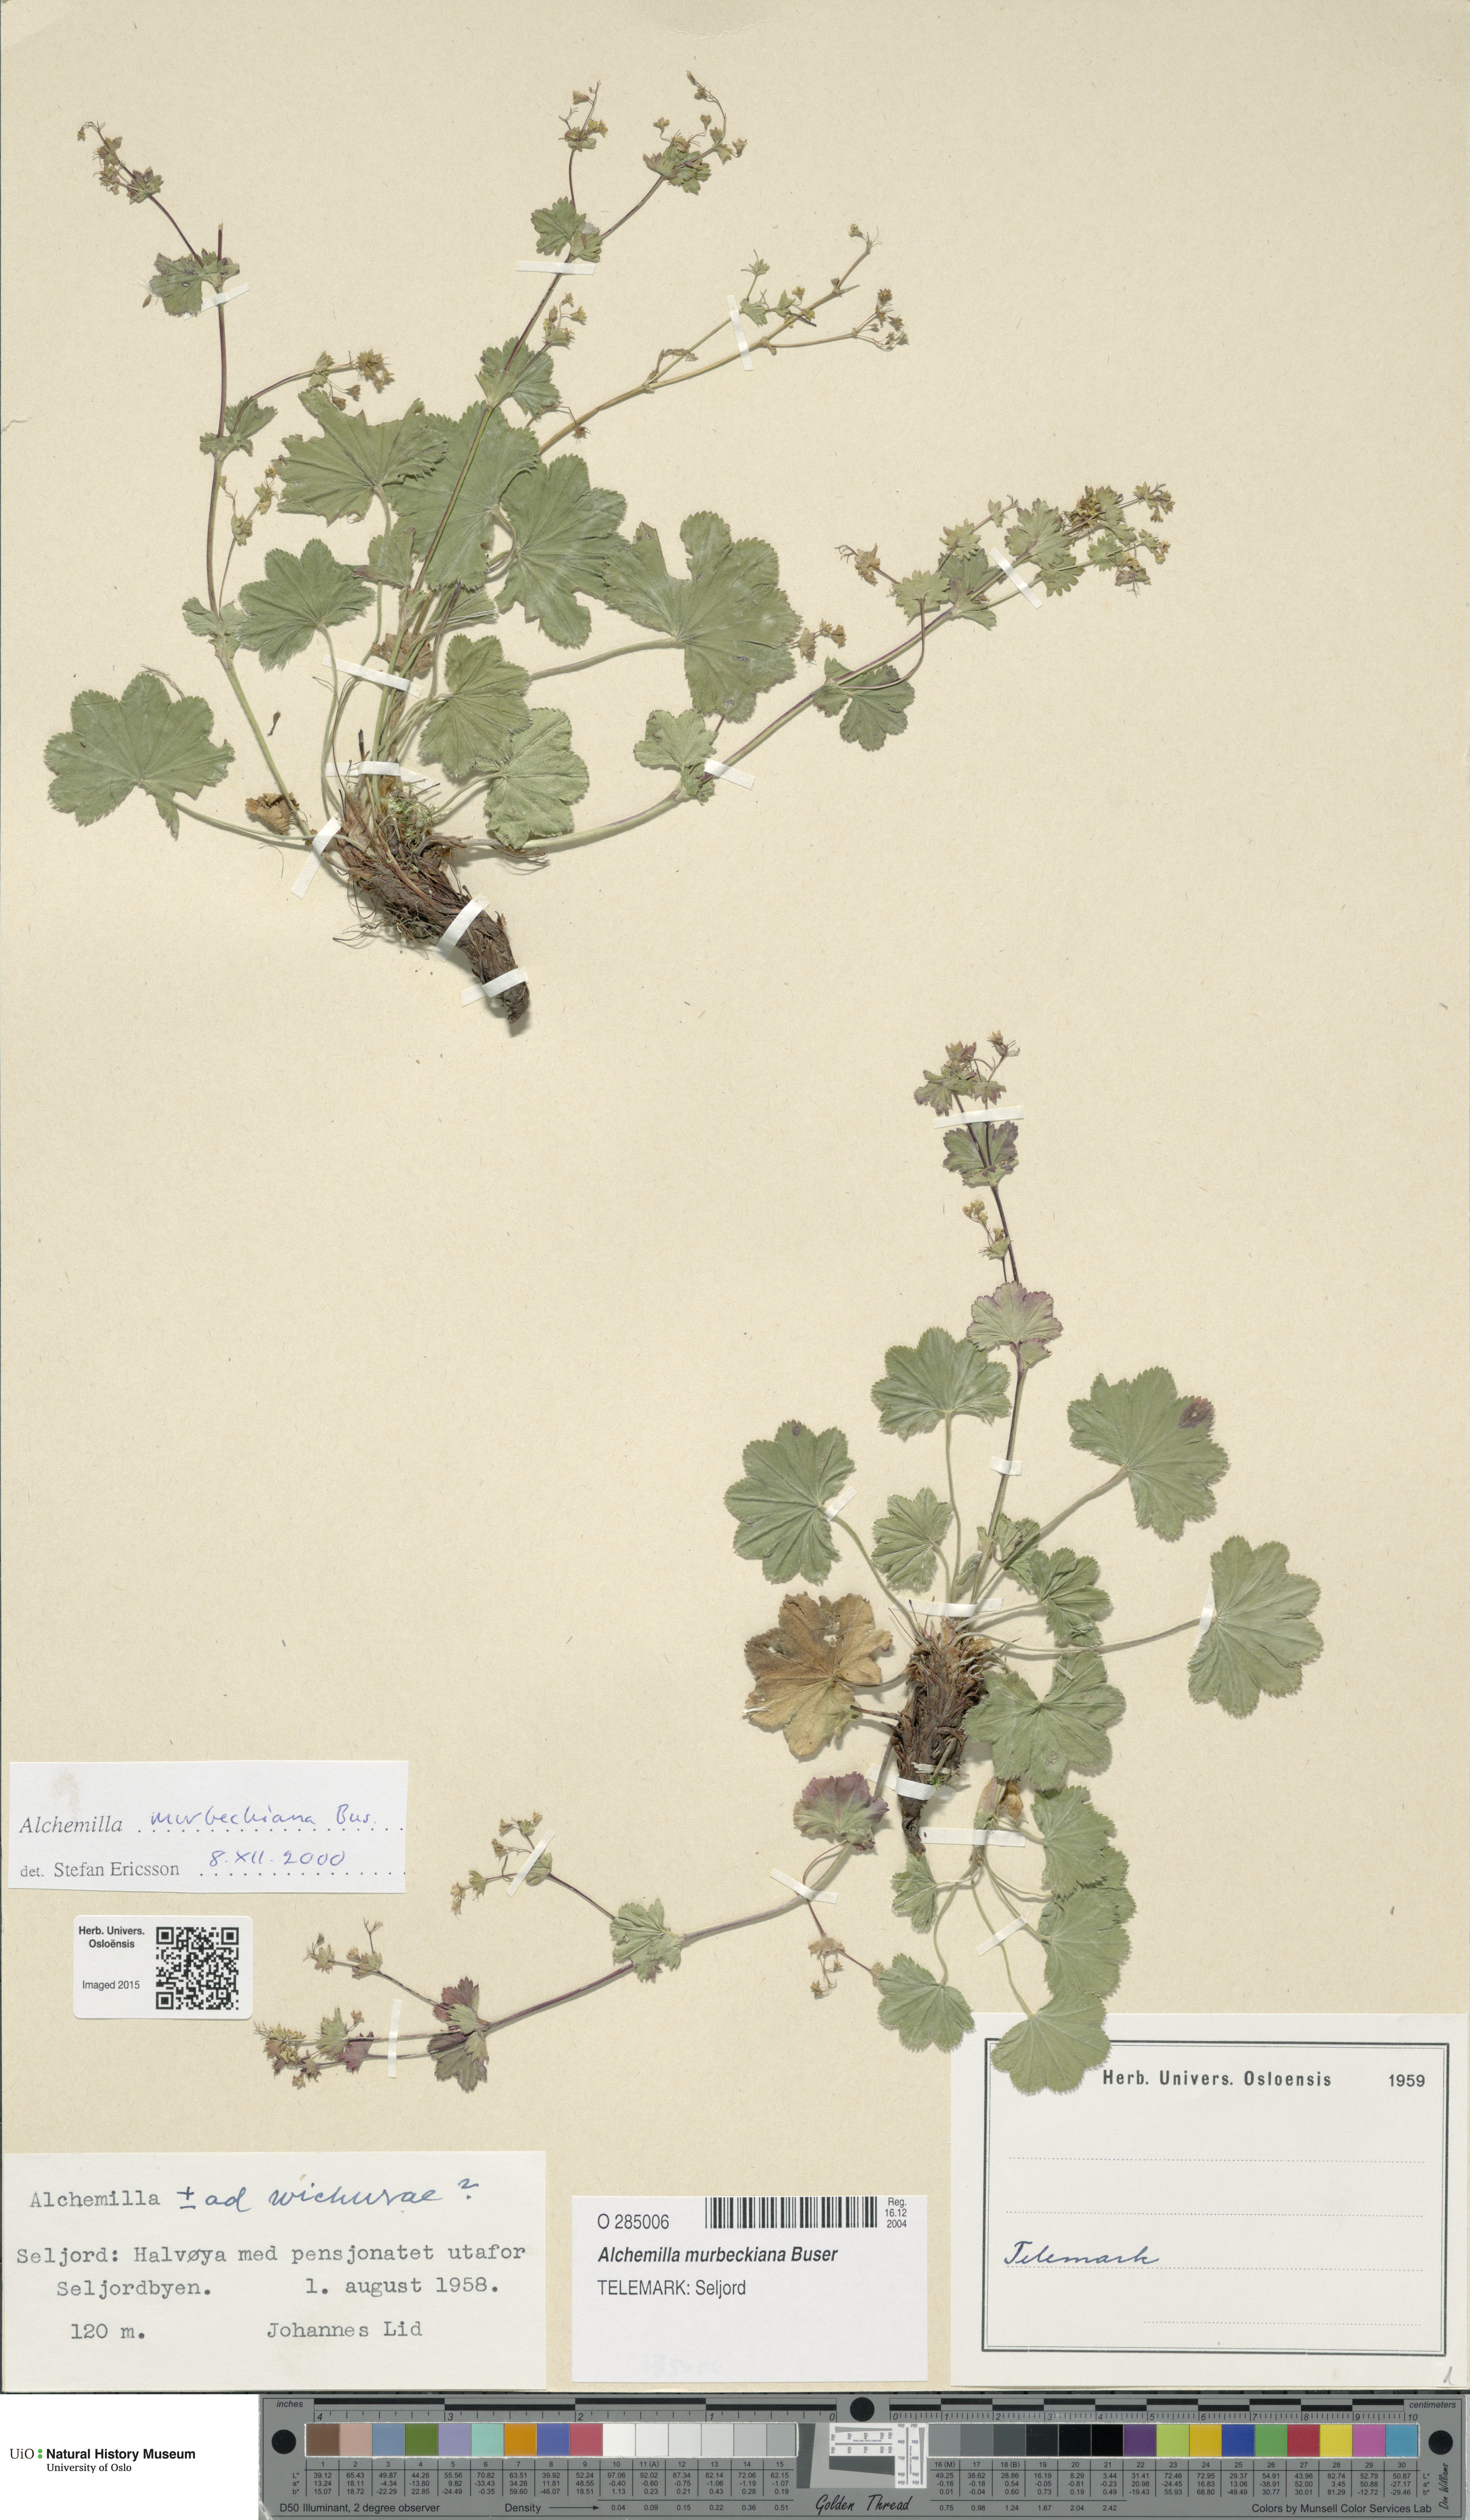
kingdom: Plantae
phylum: Tracheophyta
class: Magnoliopsida
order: Rosales
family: Rosaceae
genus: Alchemilla
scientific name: Alchemilla murbeckiana
